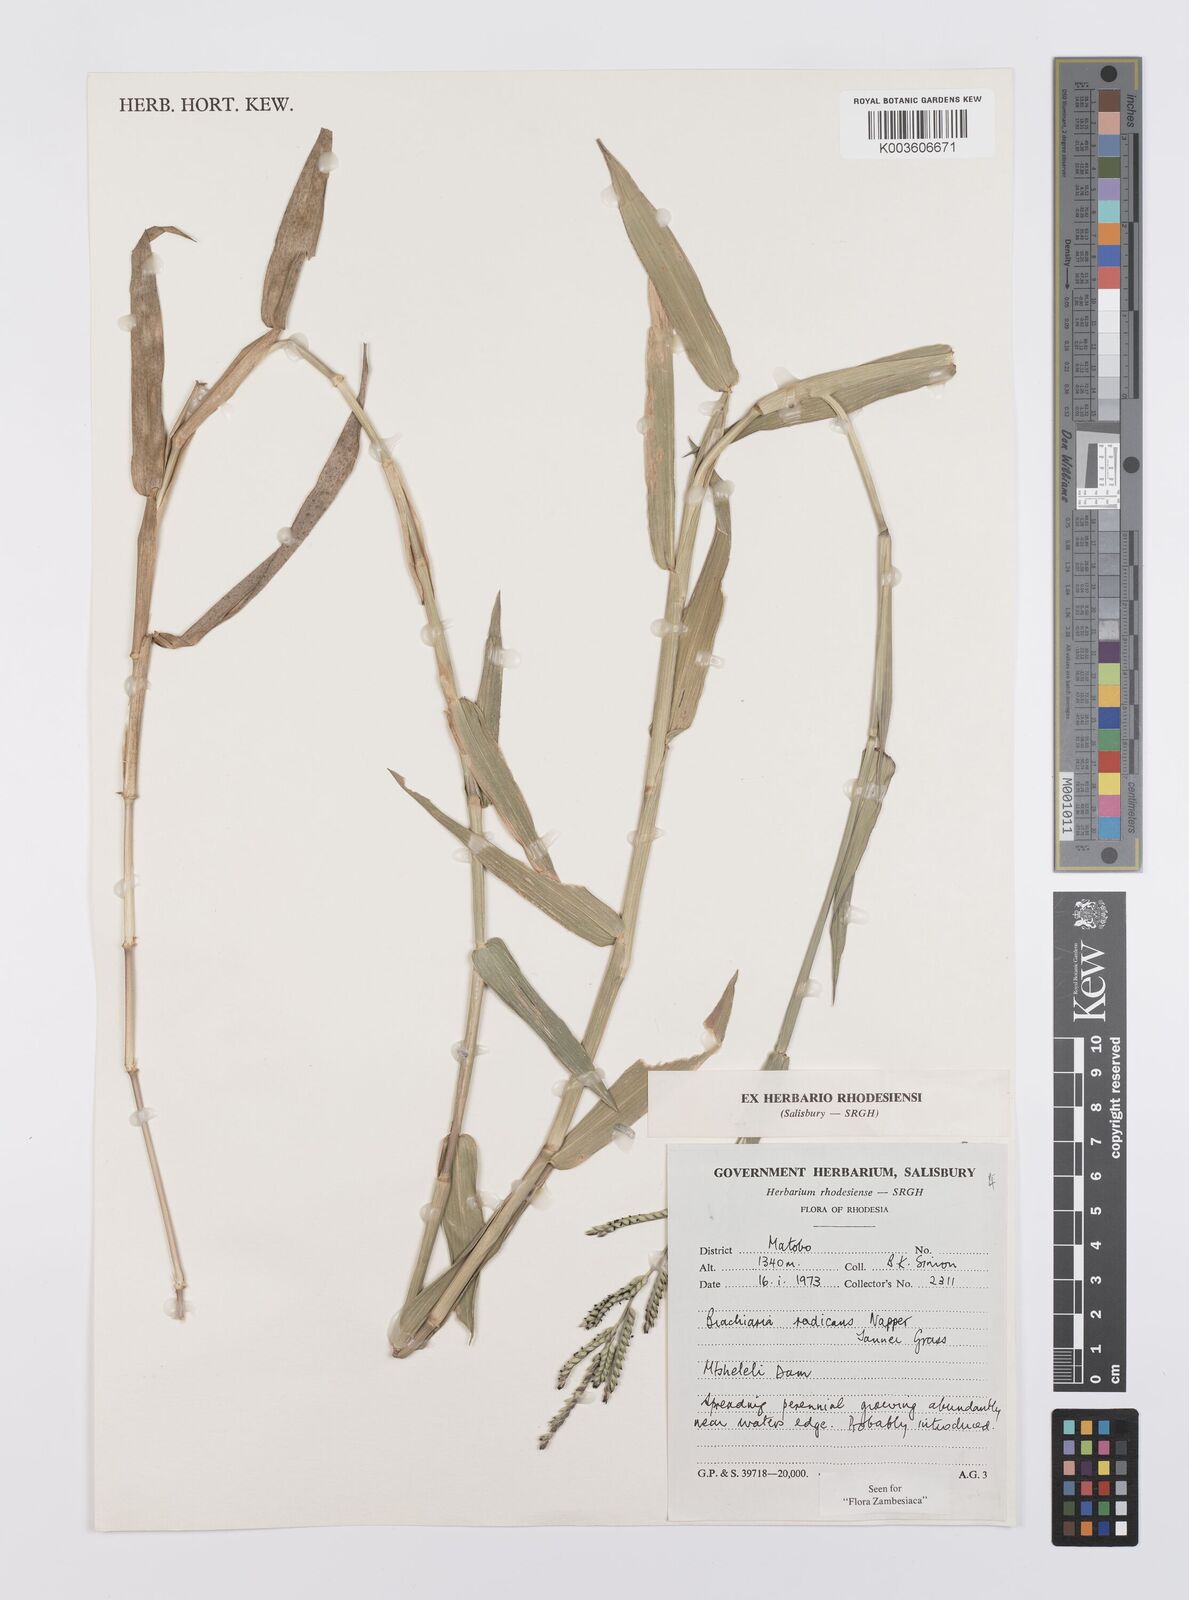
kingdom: Plantae
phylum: Tracheophyta
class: Liliopsida
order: Poales
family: Poaceae
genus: Urochloa
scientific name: Urochloa arrecta
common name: African signalgrass
